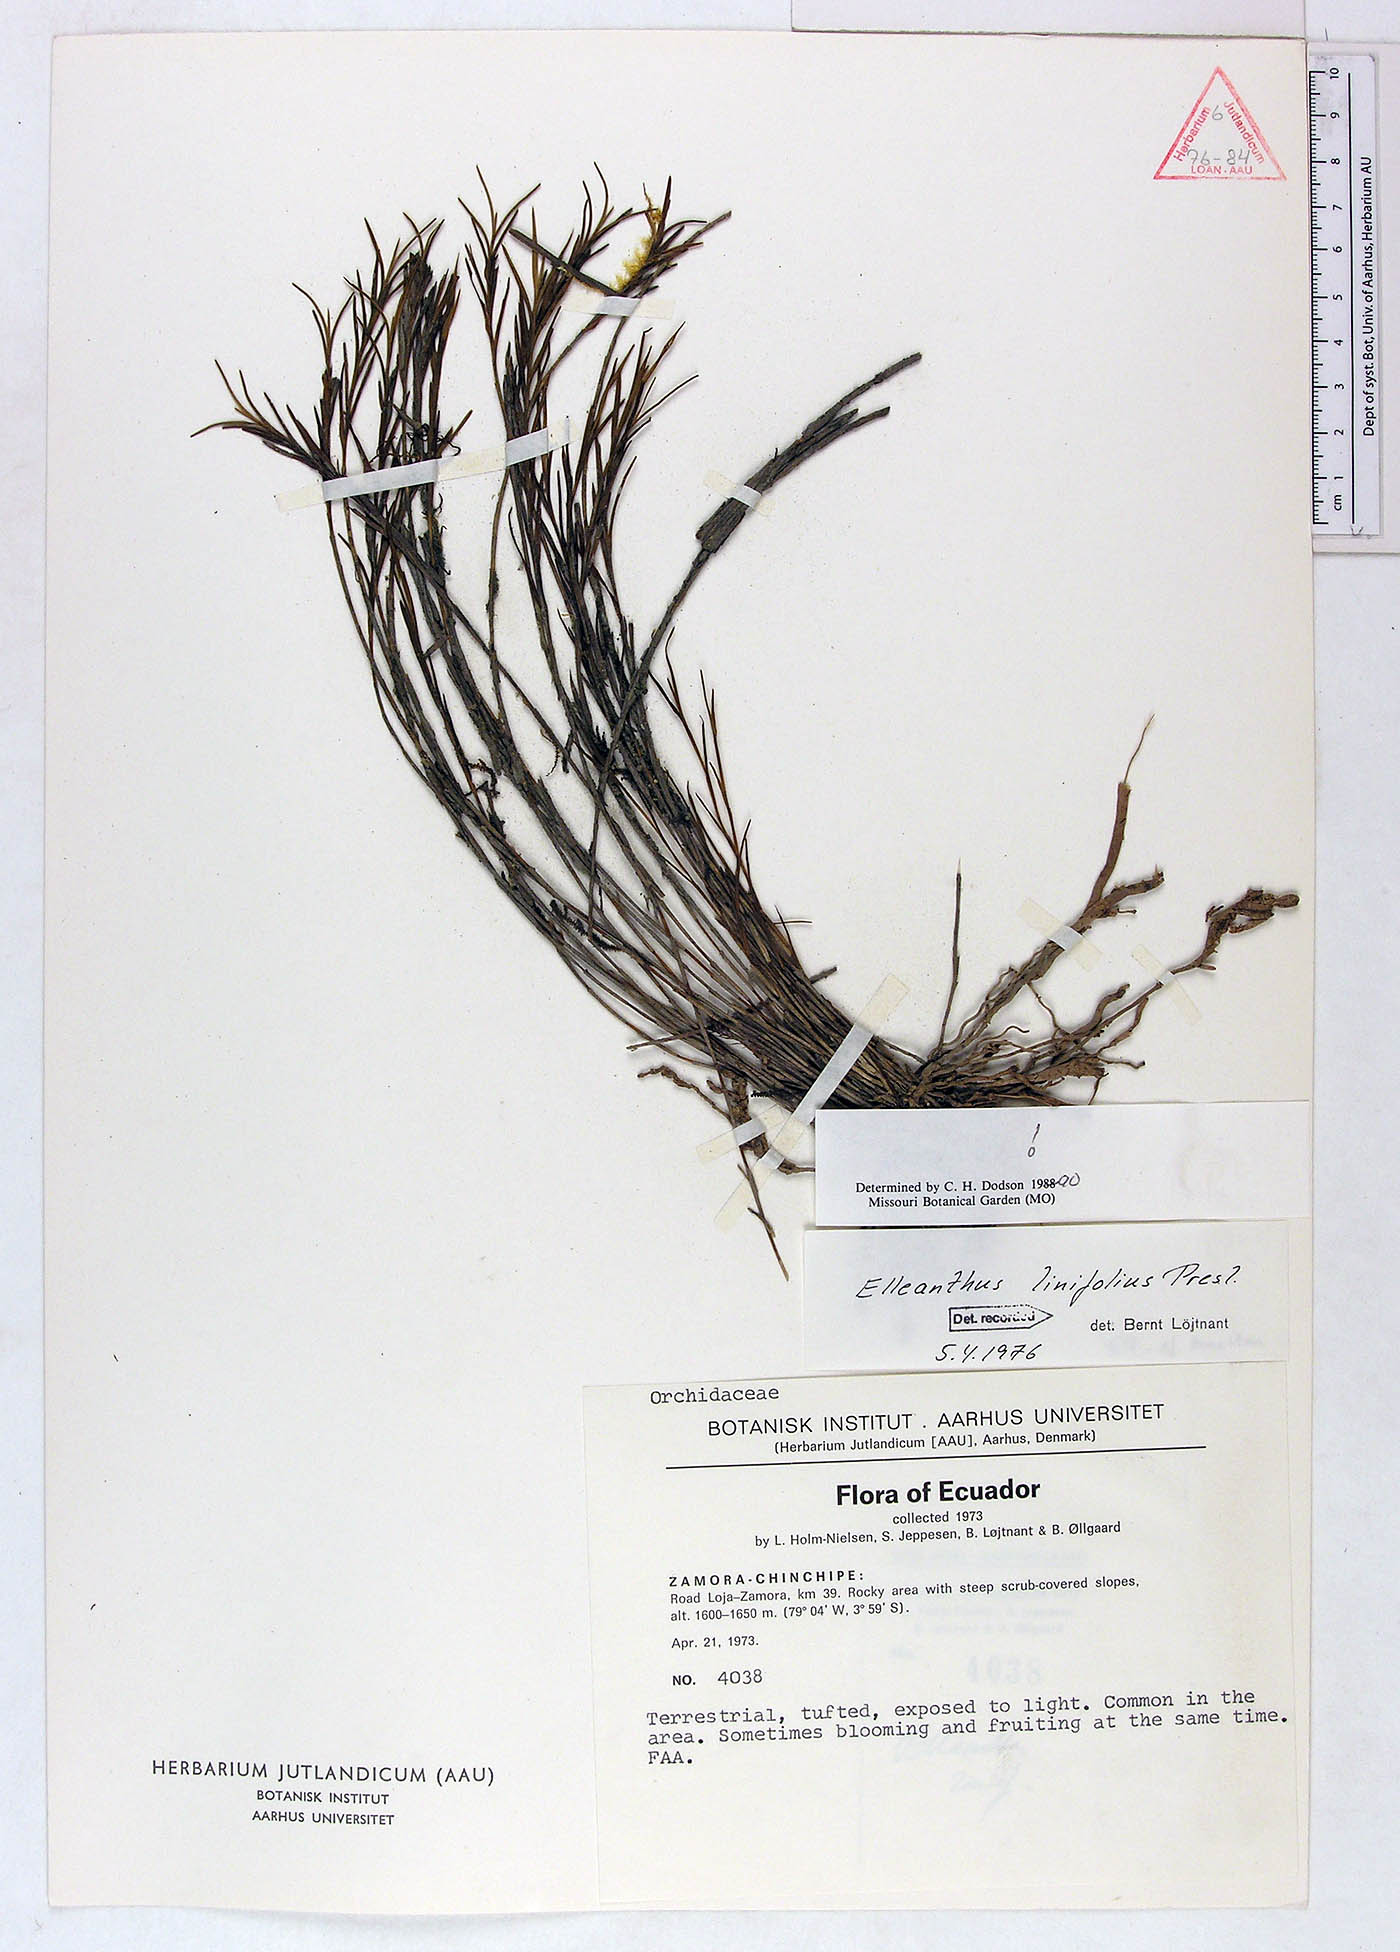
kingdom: Plantae
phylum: Tracheophyta
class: Liliopsida
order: Asparagales
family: Orchidaceae
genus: Elleanthus
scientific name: Elleanthus linifolius
